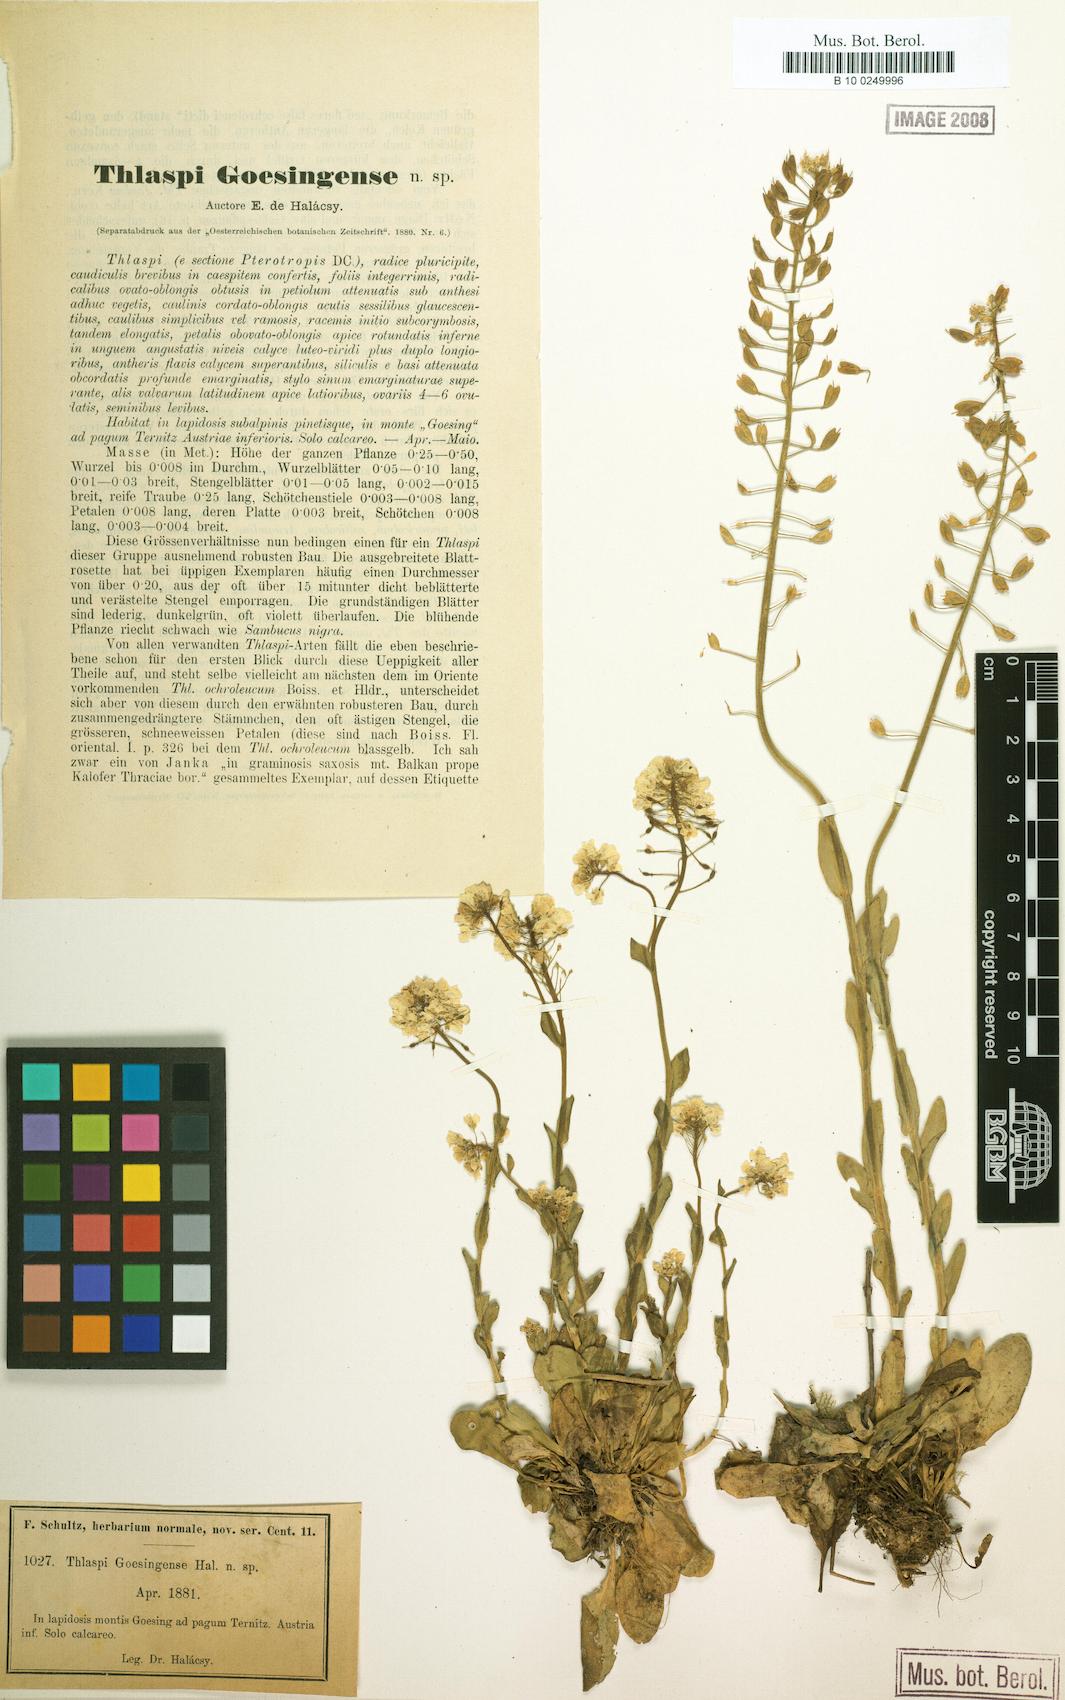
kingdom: Plantae
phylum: Tracheophyta
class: Magnoliopsida
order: Brassicales
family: Brassicaceae
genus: Noccaea
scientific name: Noccaea goesingensis
